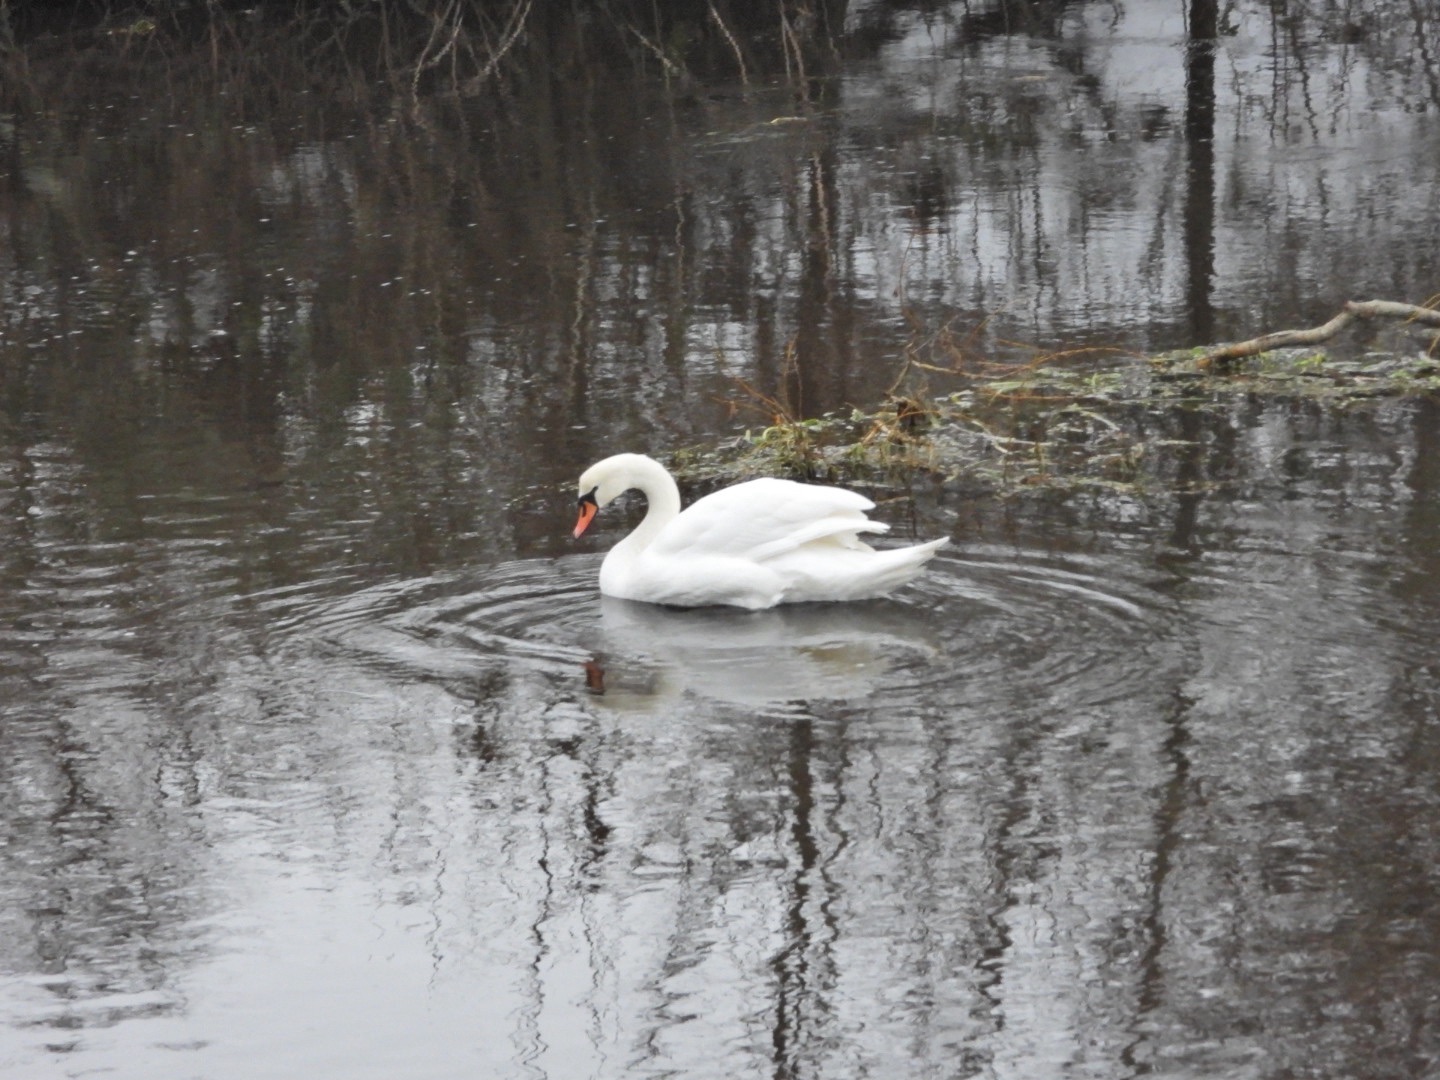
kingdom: Animalia
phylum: Chordata
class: Aves
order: Anseriformes
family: Anatidae
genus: Cygnus
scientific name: Cygnus olor
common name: Knopsvane
